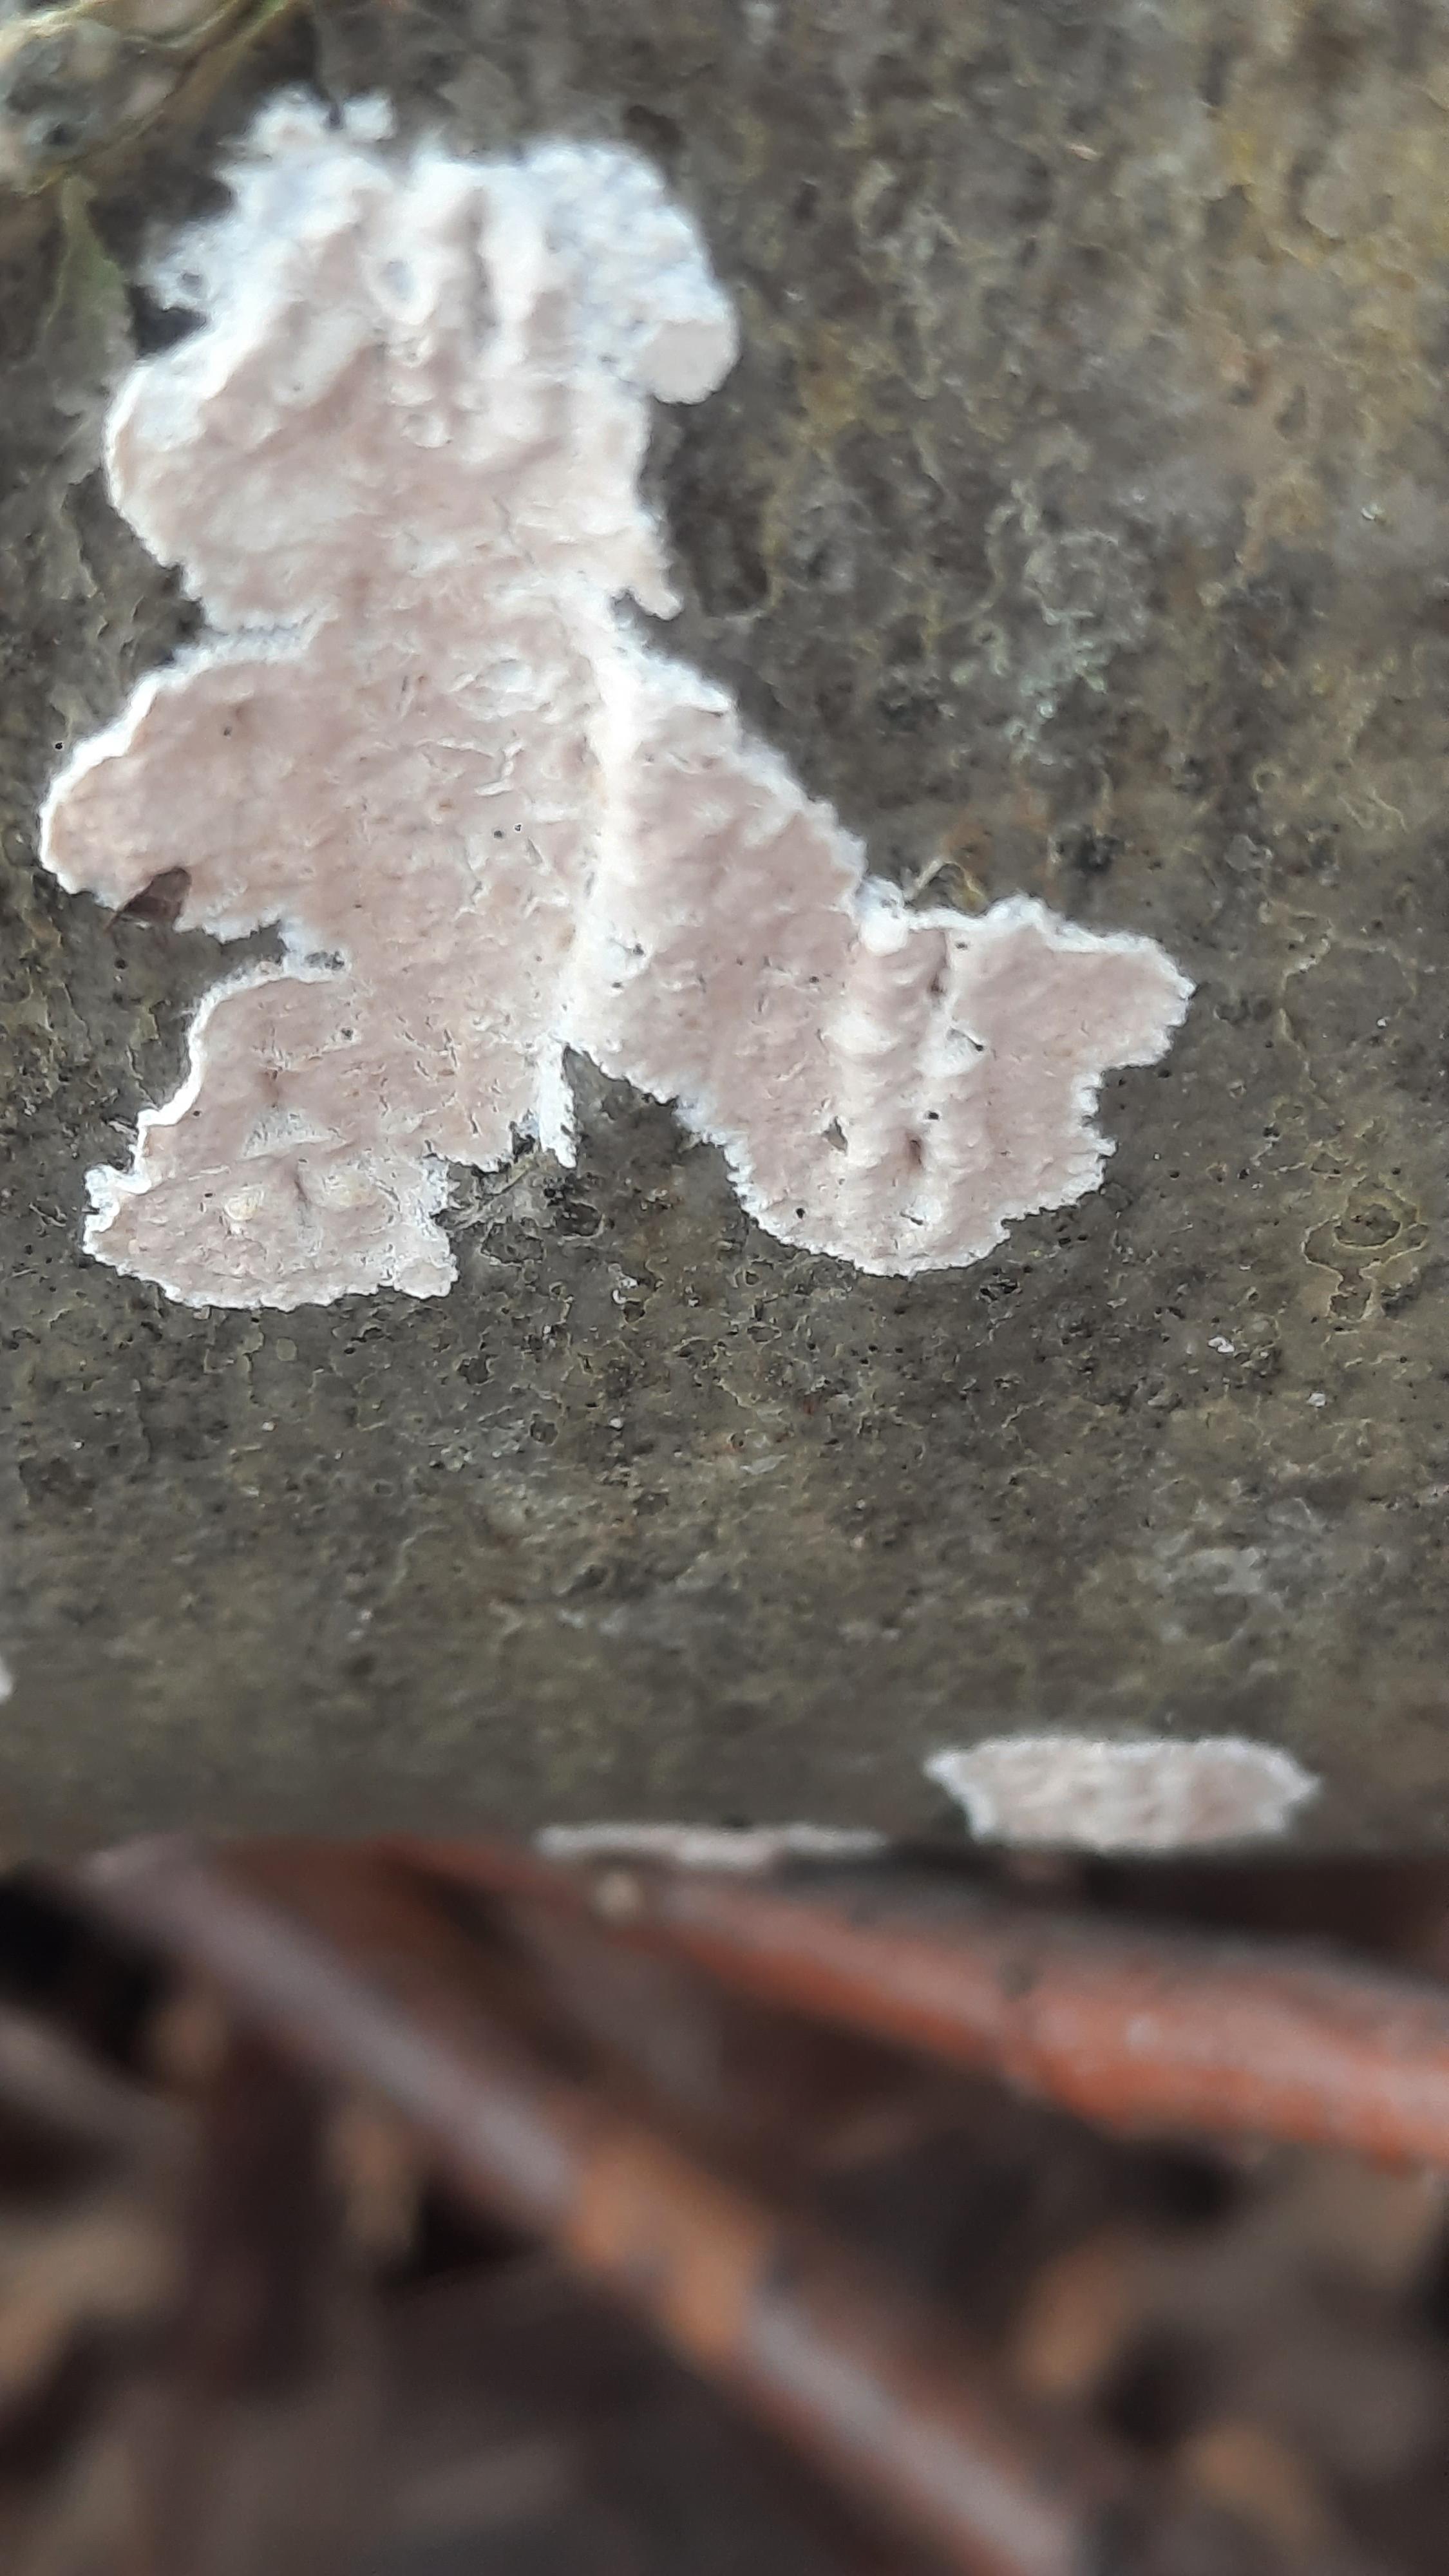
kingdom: Fungi
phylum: Basidiomycota
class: Agaricomycetes
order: Agaricales
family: Physalacriaceae
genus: Cylindrobasidium
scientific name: Cylindrobasidium evolvens
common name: sprækkehinde
